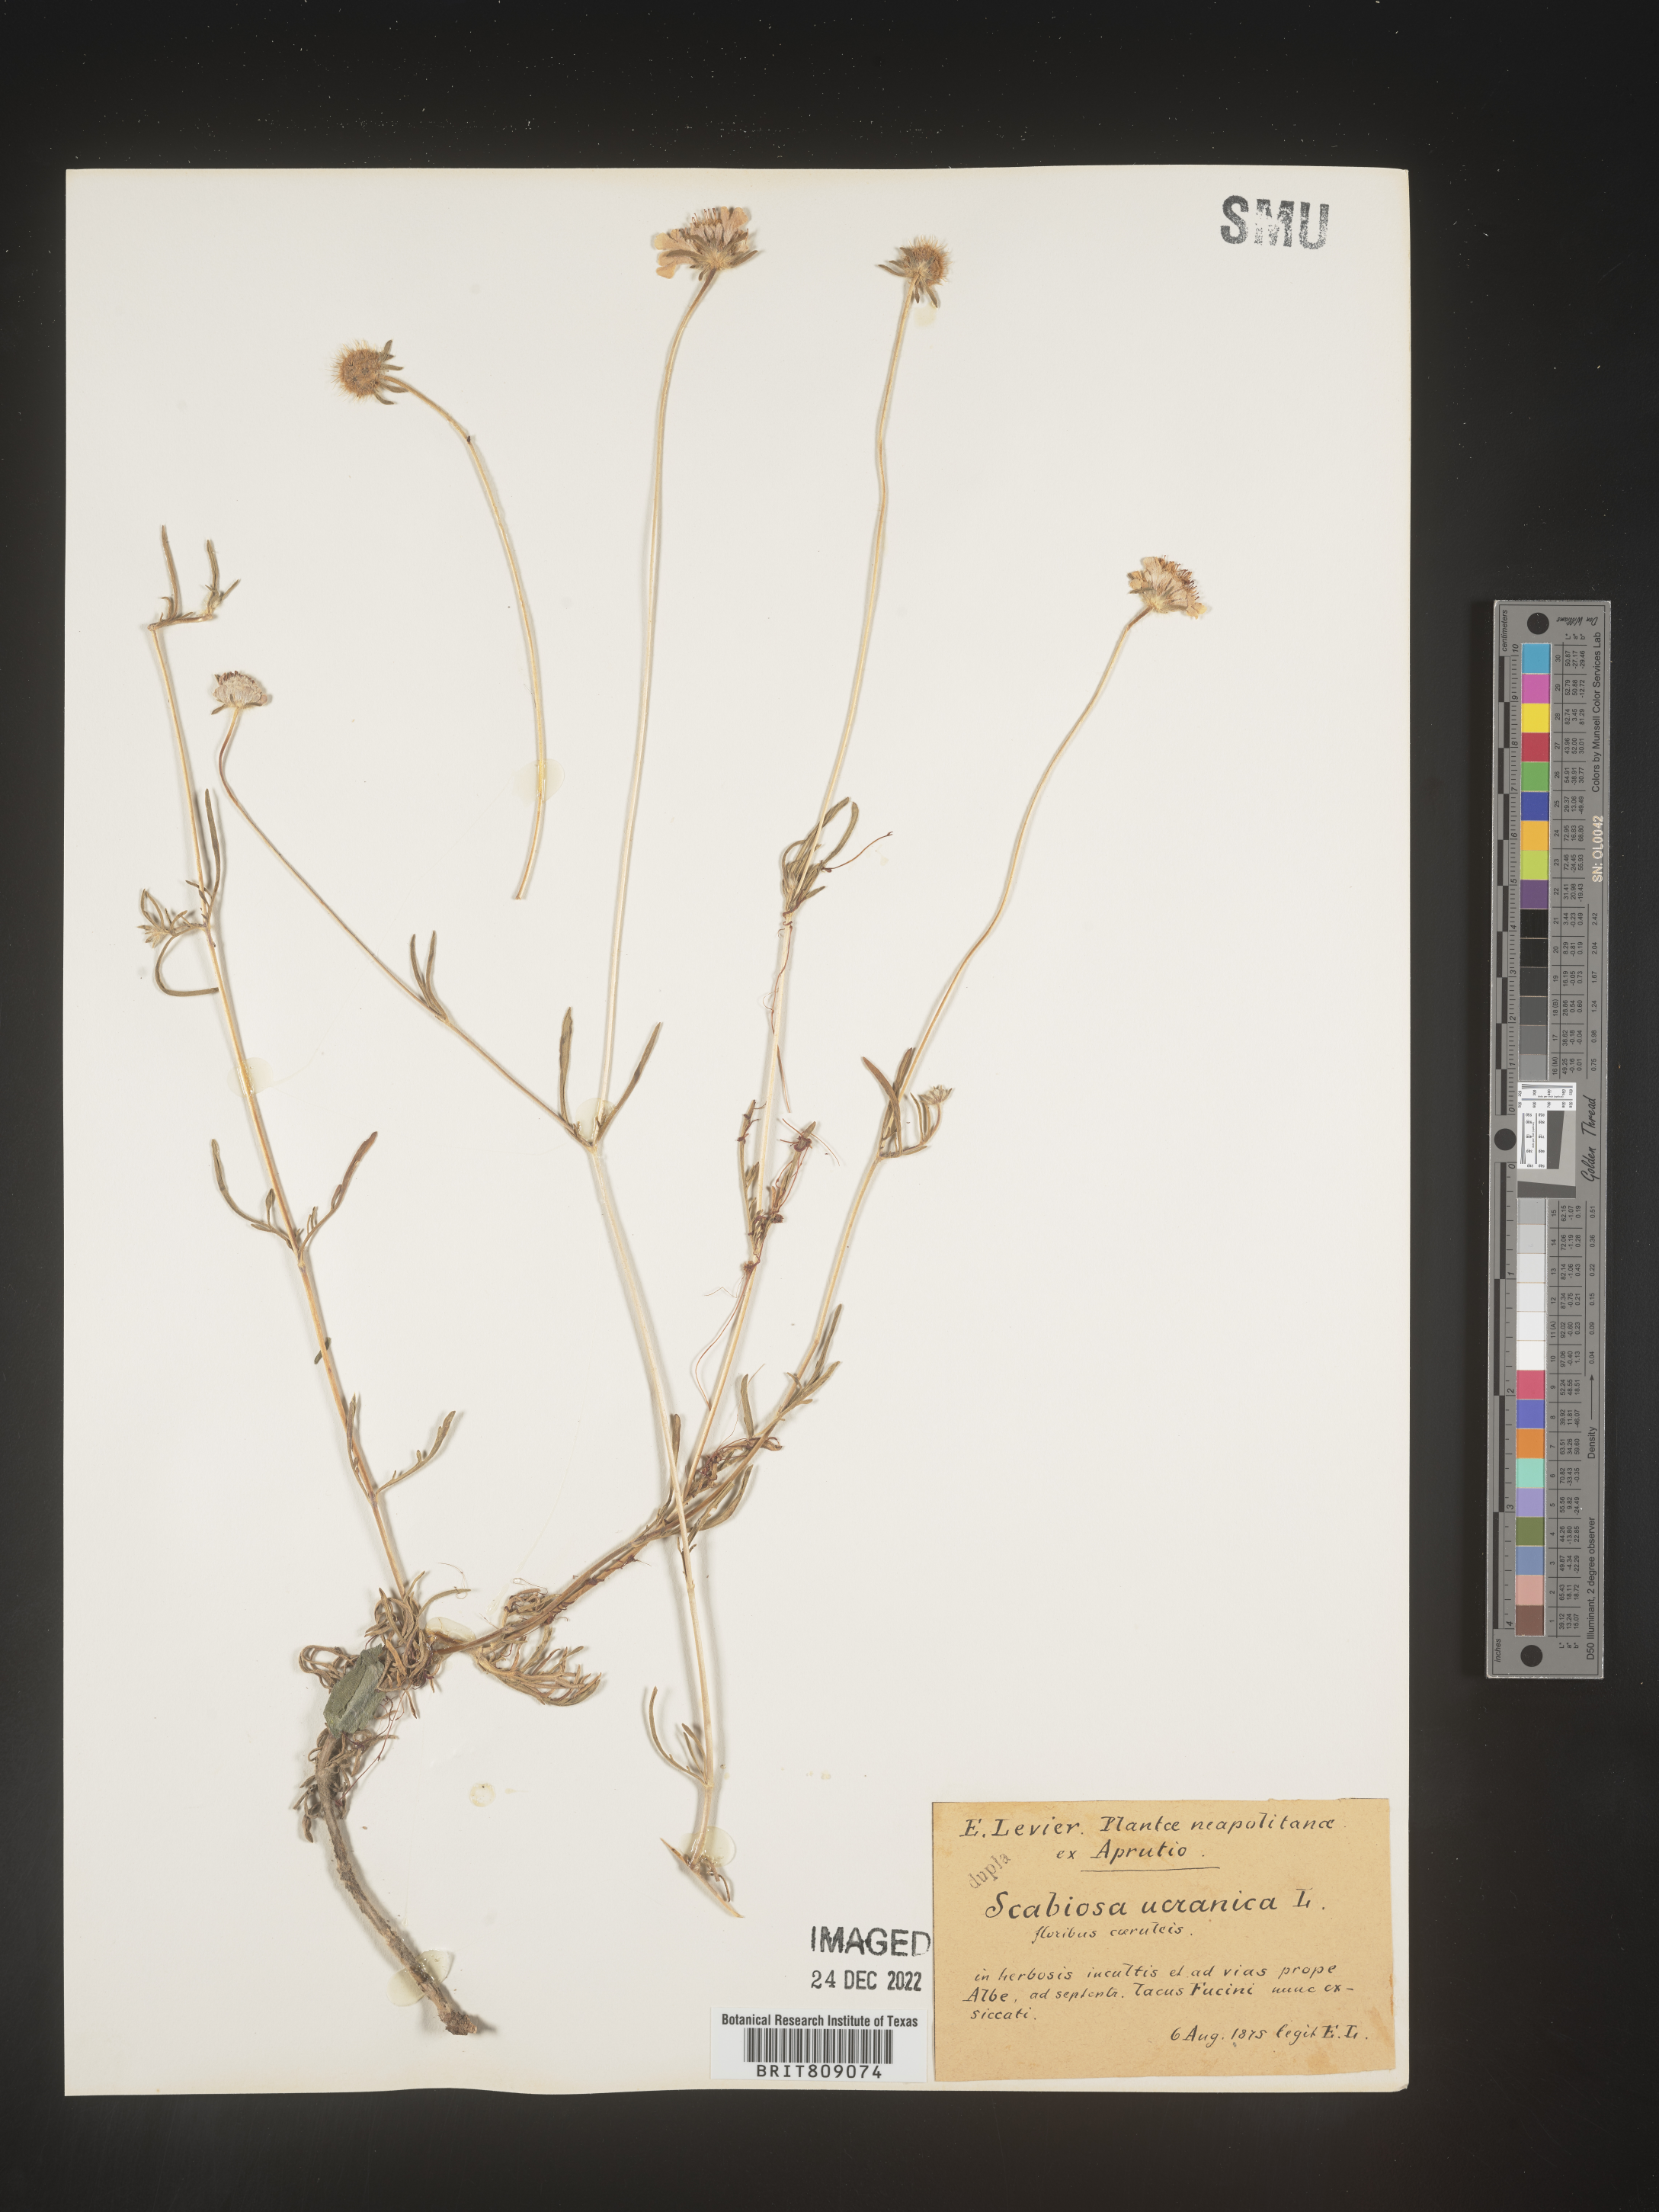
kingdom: Plantae
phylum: Tracheophyta
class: Magnoliopsida
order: Dipsacales
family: Caprifoliaceae
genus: Scabiosa
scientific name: Scabiosa
